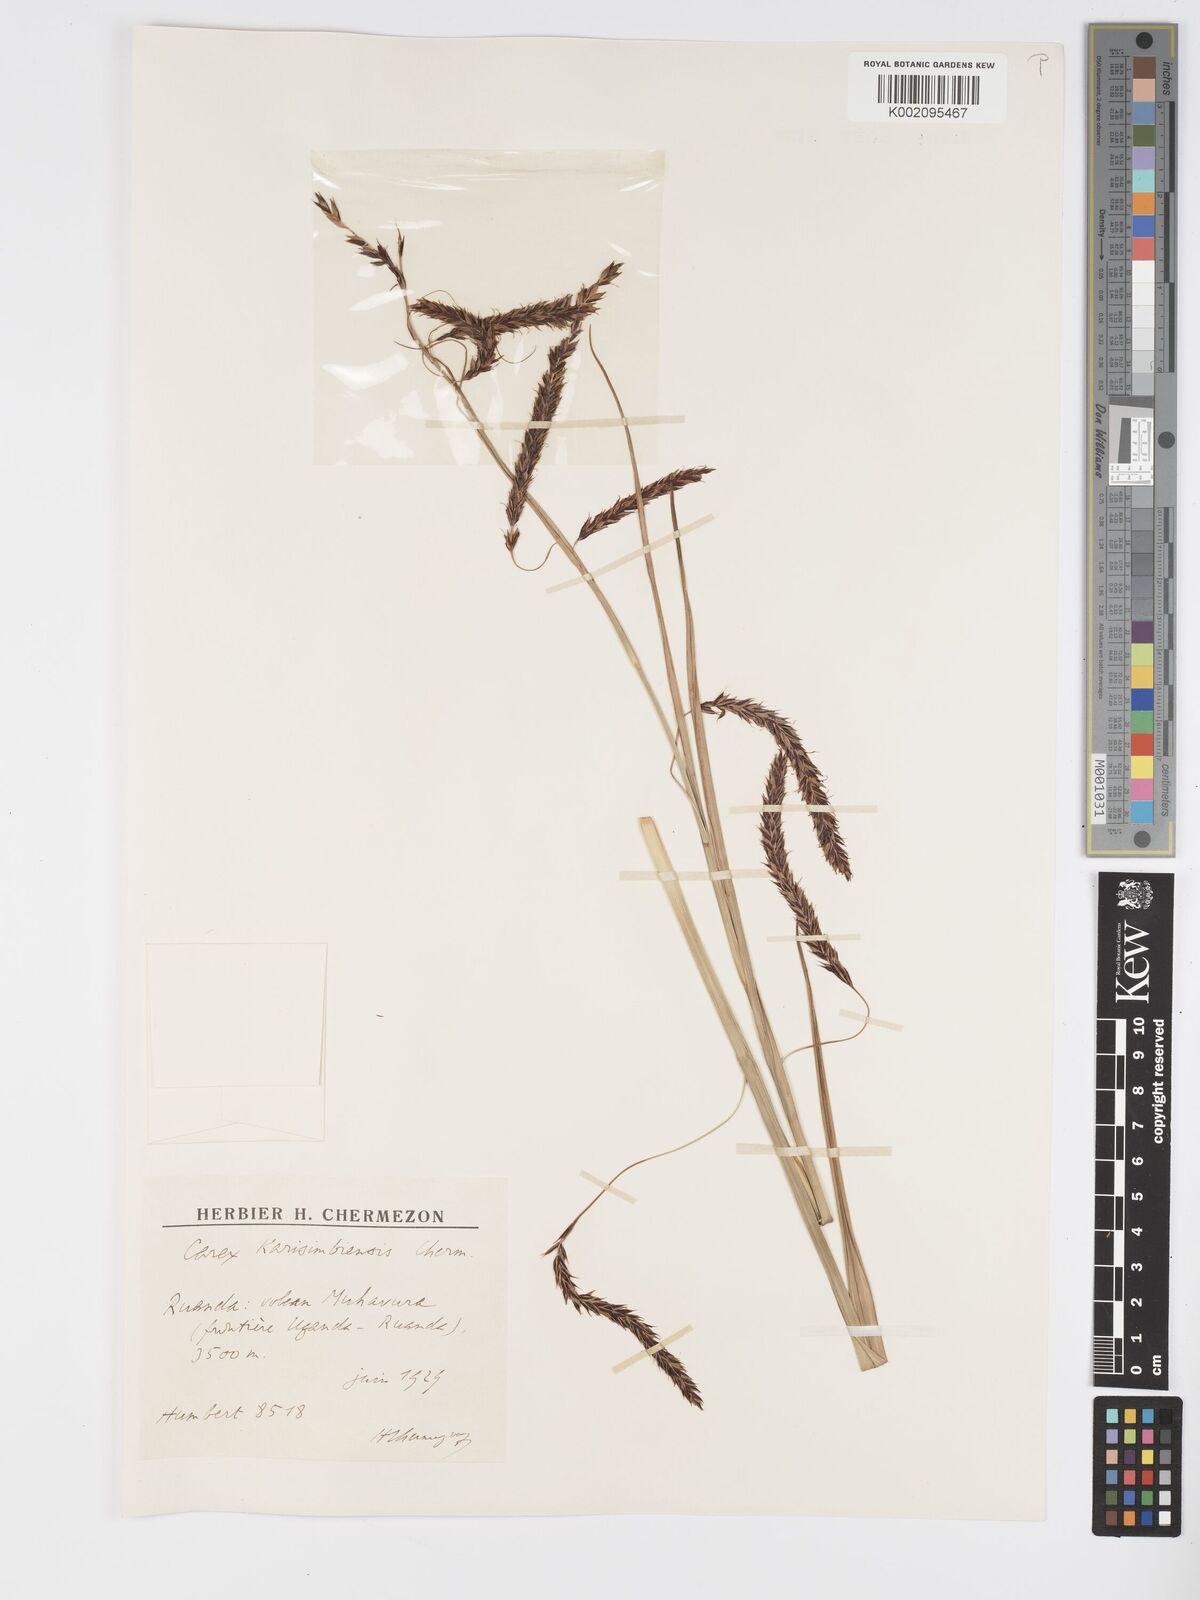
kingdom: Plantae
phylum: Tracheophyta
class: Liliopsida
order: Poales
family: Cyperaceae
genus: Carex
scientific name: Carex simensis
